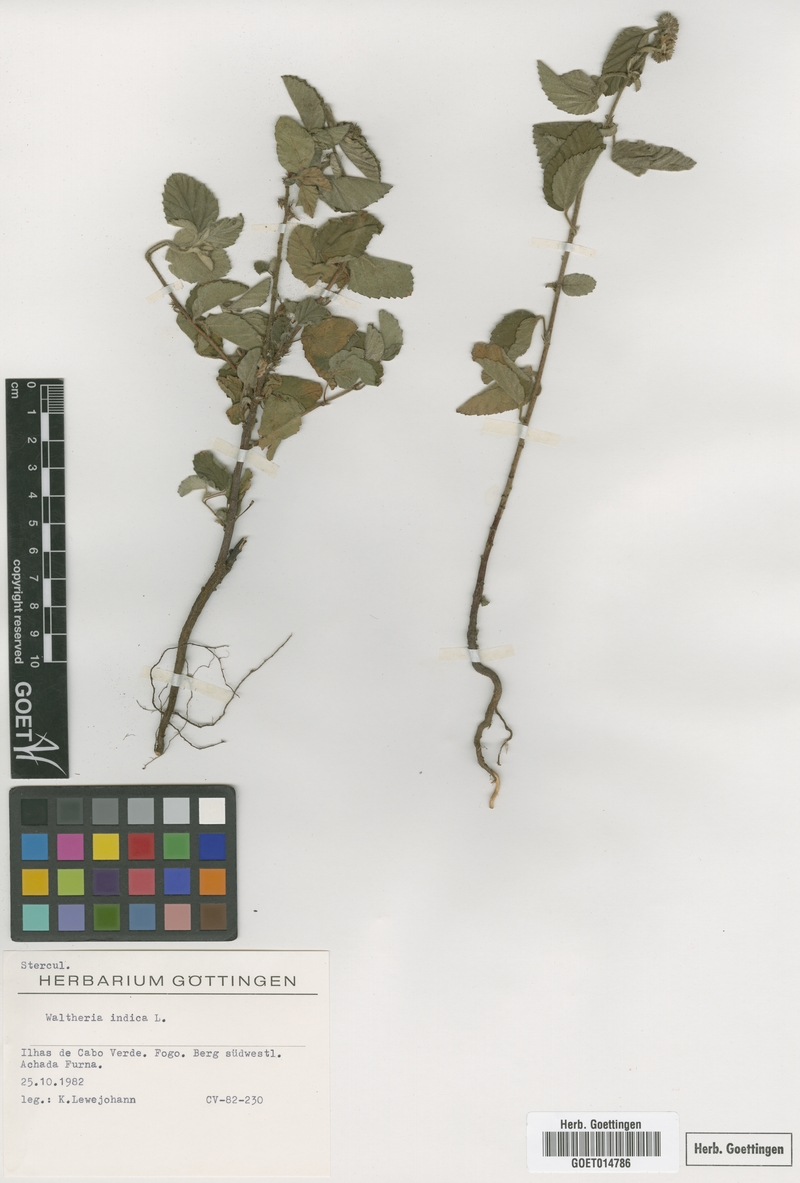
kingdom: Plantae
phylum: Tracheophyta
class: Magnoliopsida
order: Malvales
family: Malvaceae
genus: Waltheria
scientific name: Waltheria indica
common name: Leather-coat
